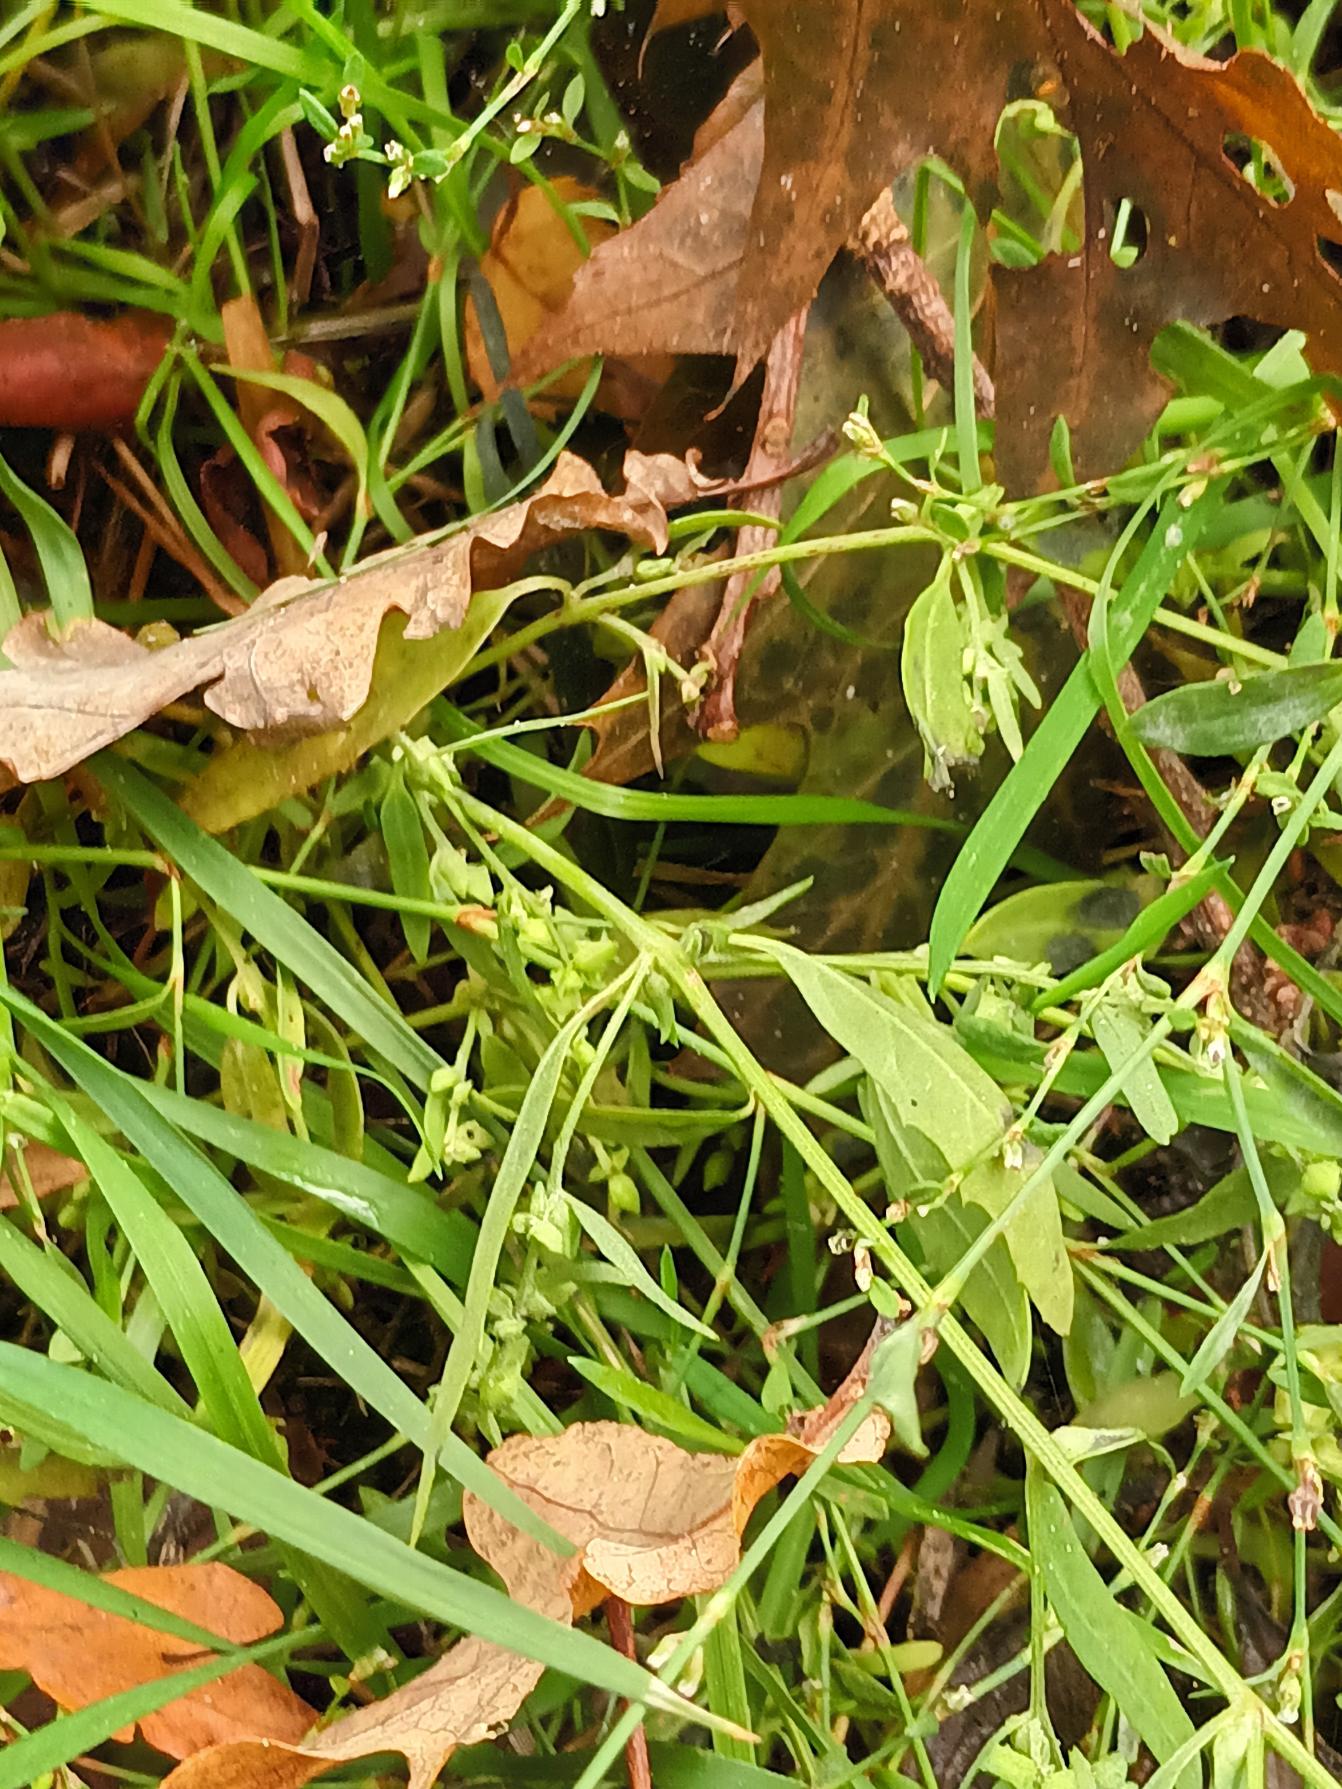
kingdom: Plantae
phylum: Tracheophyta
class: Magnoliopsida
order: Caryophyllales
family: Amaranthaceae
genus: Atriplex
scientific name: Atriplex patula
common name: Svine-mælde
